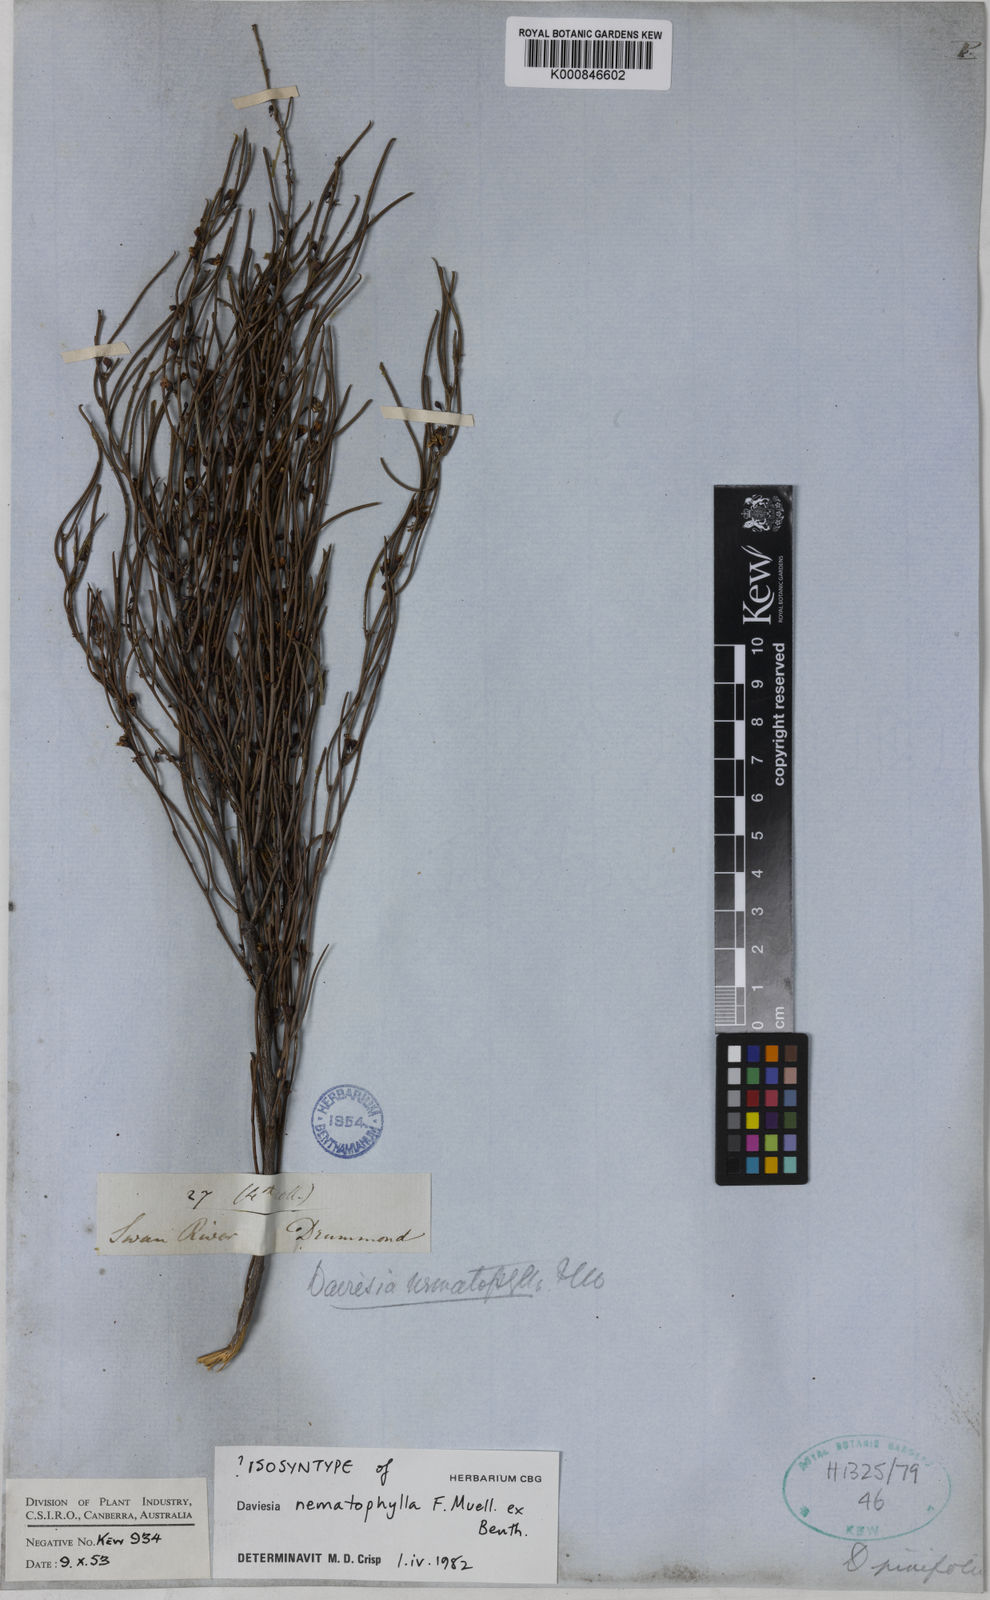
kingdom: Plantae
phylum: Tracheophyta
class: Magnoliopsida
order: Fabales
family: Fabaceae
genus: Daviesia
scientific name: Daviesia nematophylla
